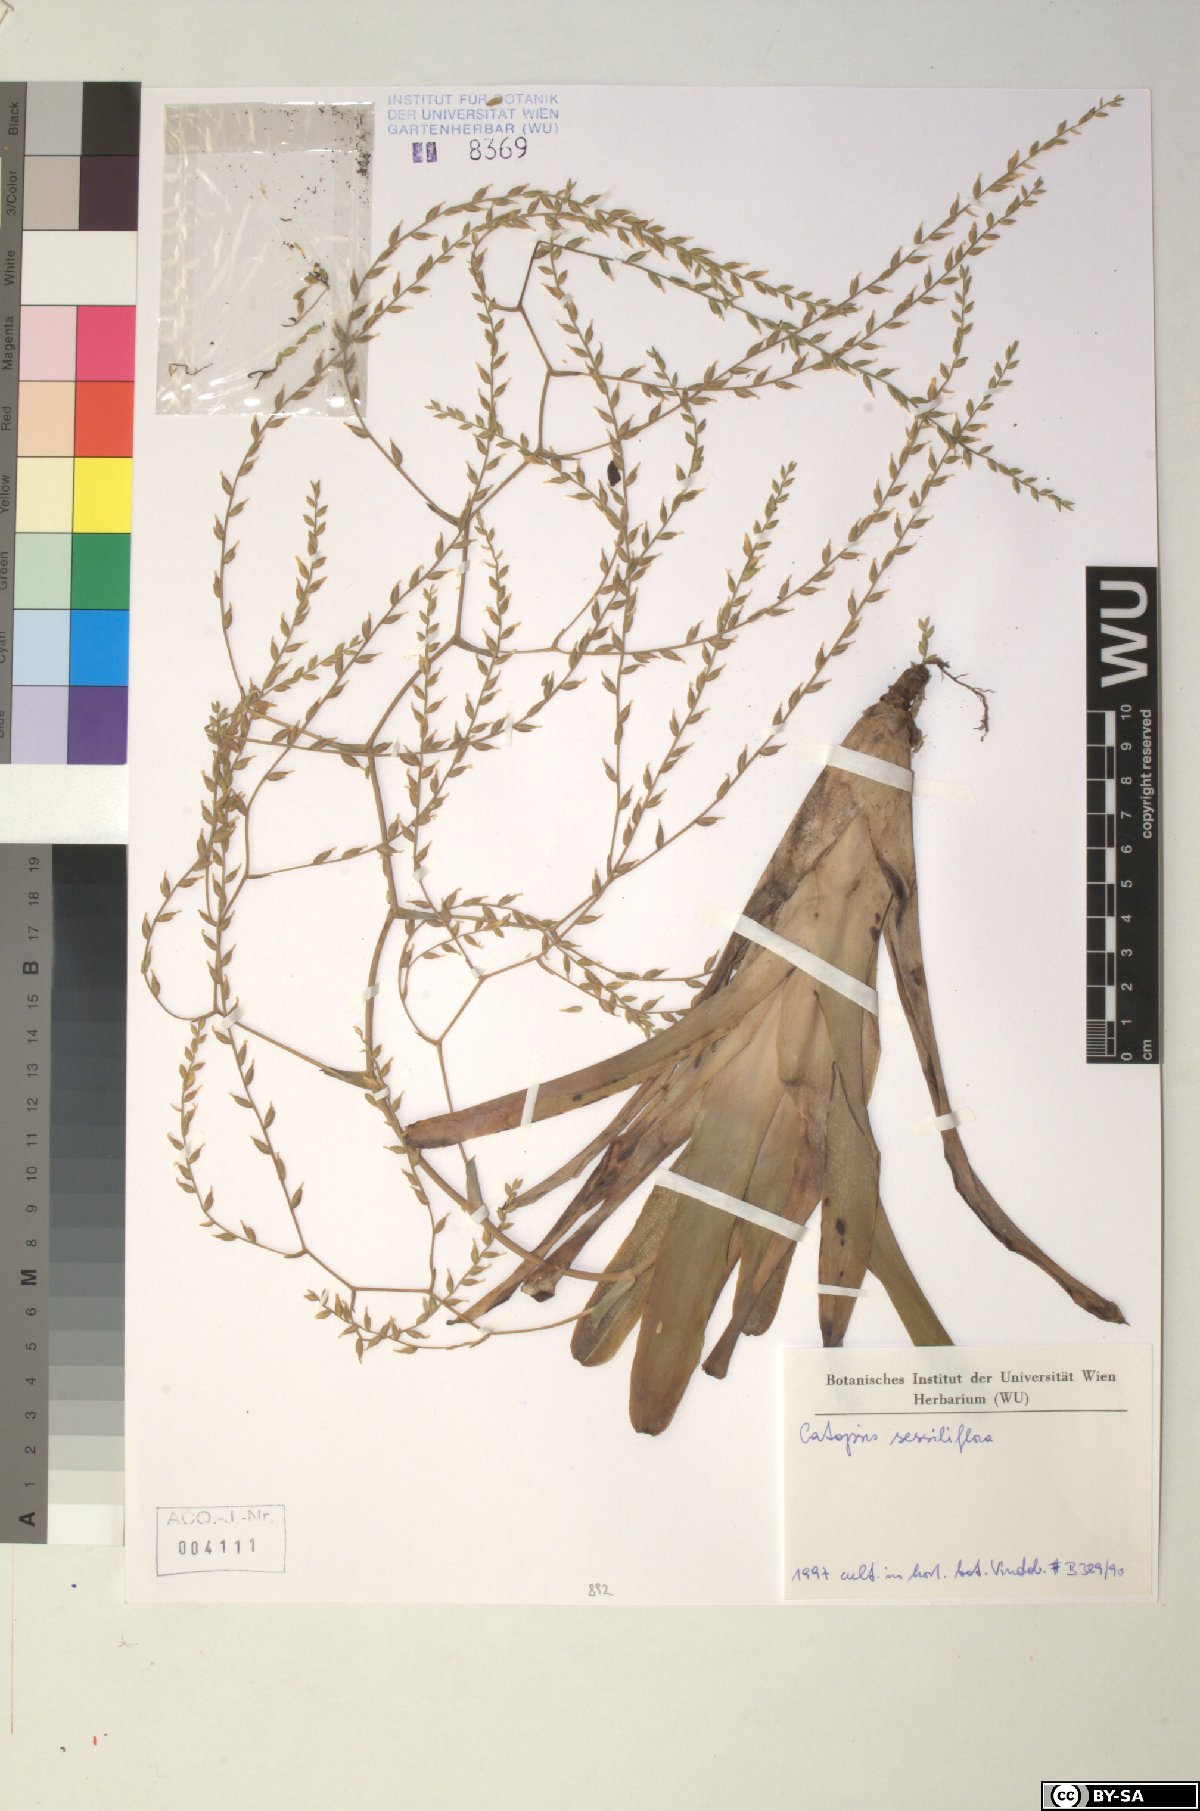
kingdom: Plantae
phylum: Tracheophyta
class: Liliopsida
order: Poales
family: Bromeliaceae
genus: Catopsis
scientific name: Catopsis sessiliflora
